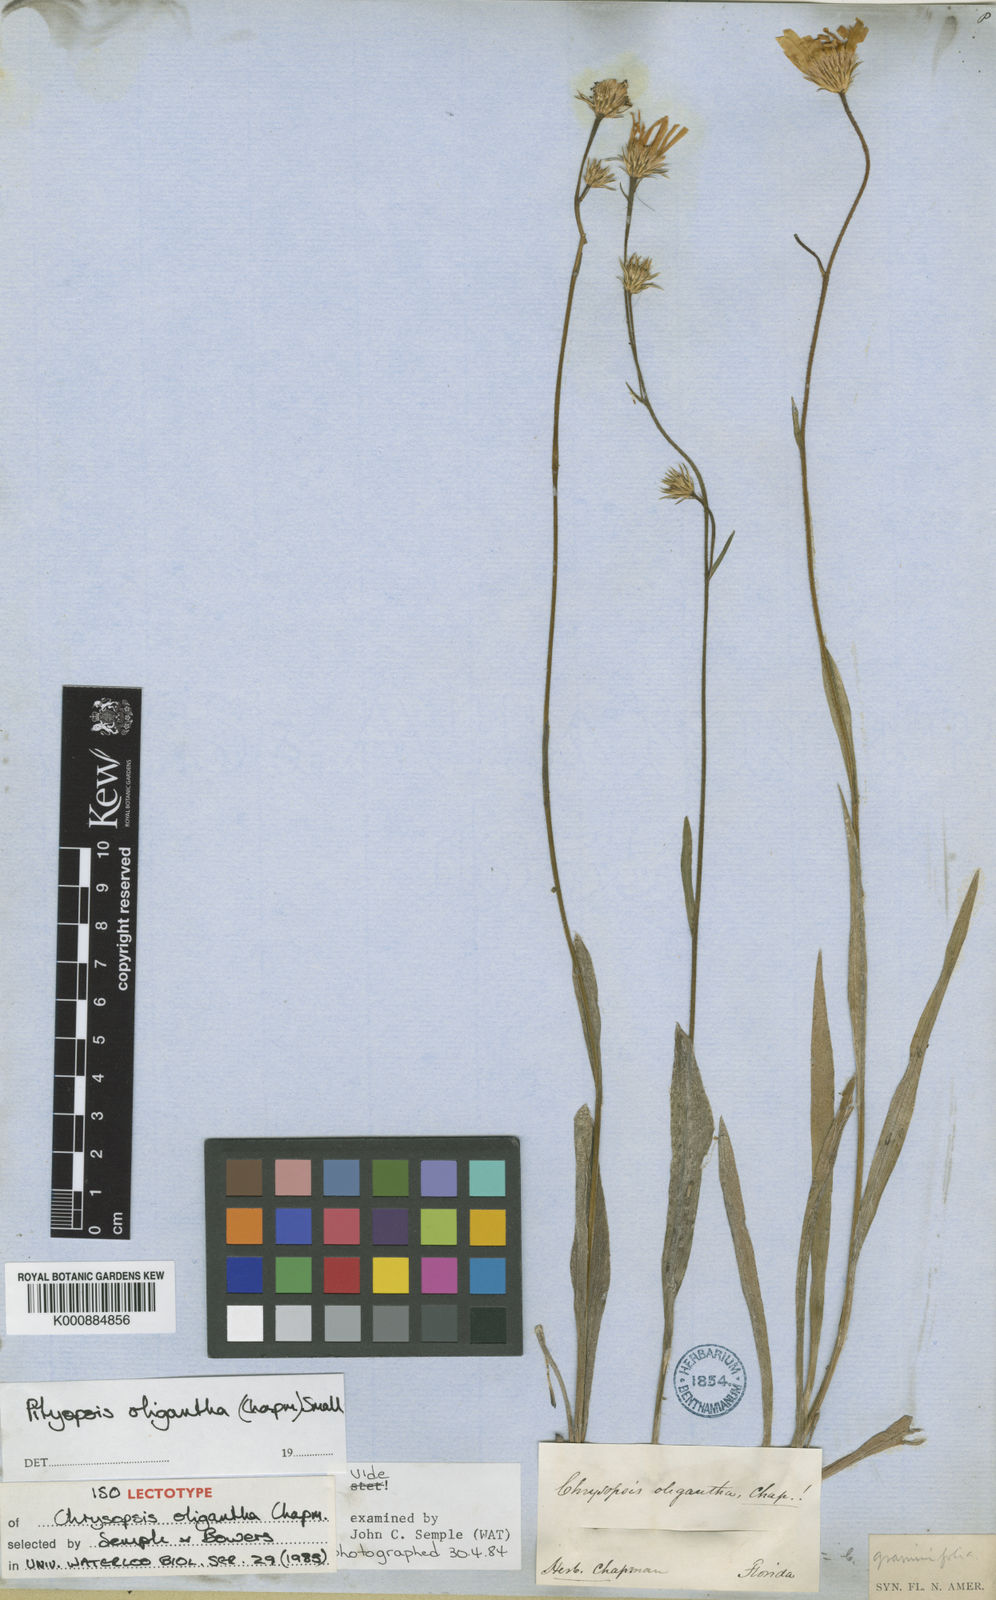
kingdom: Plantae
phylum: Tracheophyta
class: Magnoliopsida
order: Asterales
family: Asteraceae
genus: Pityopsis
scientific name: Pityopsis oligantha
